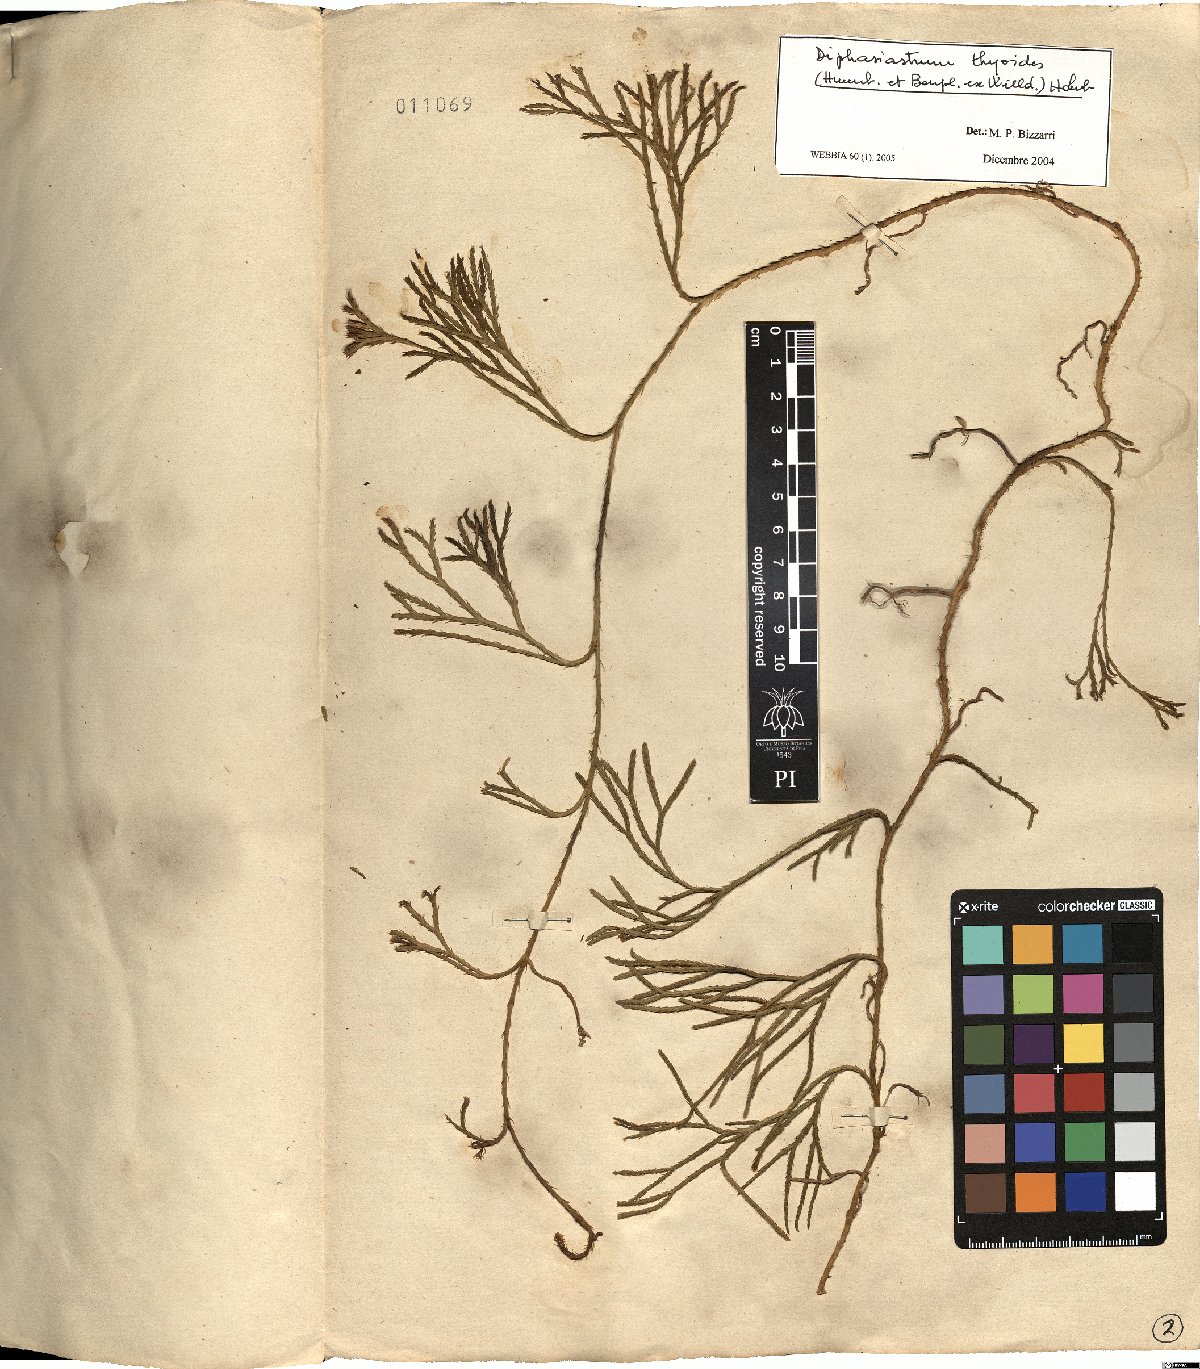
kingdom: Plantae
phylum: Tracheophyta
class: Lycopodiopsida
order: Lycopodiales
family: Lycopodiaceae
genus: Diphasiastrum
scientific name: Diphasiastrum thyoides
